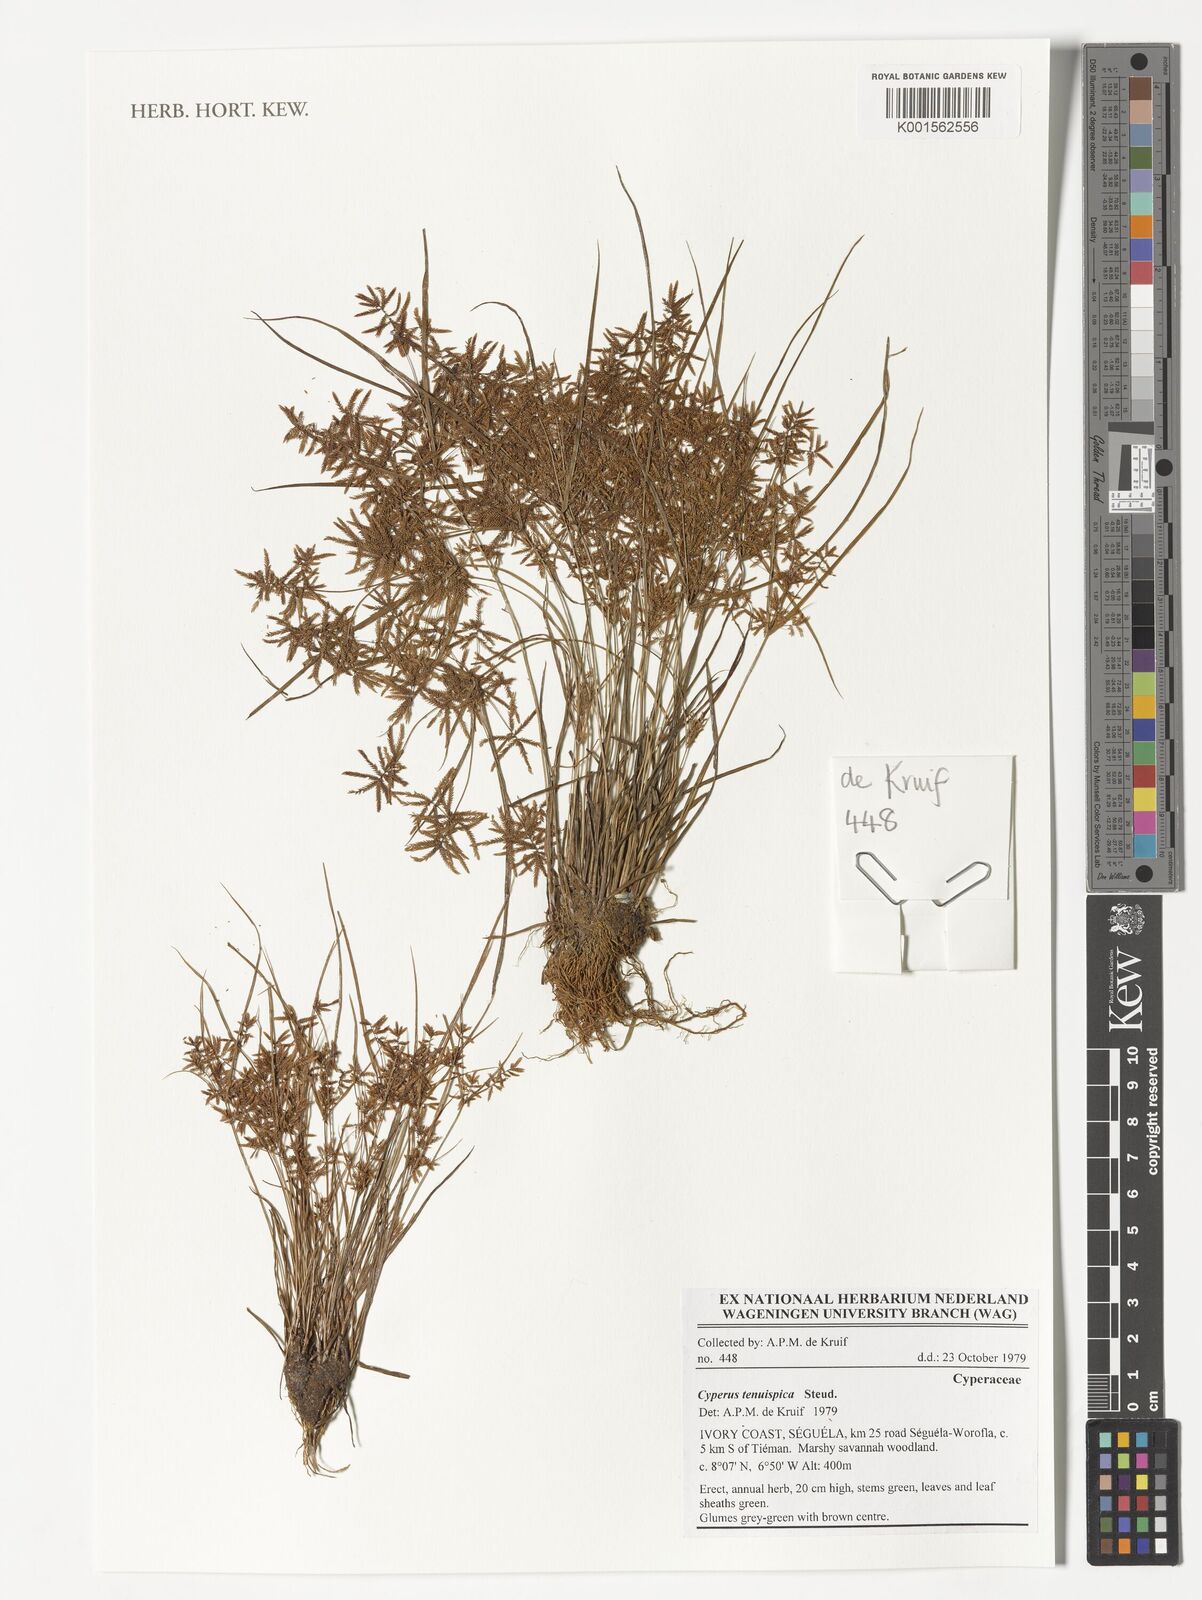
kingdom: Plantae
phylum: Tracheophyta
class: Liliopsida
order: Poales
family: Cyperaceae
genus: Cyperus
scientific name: Cyperus tenuispica
